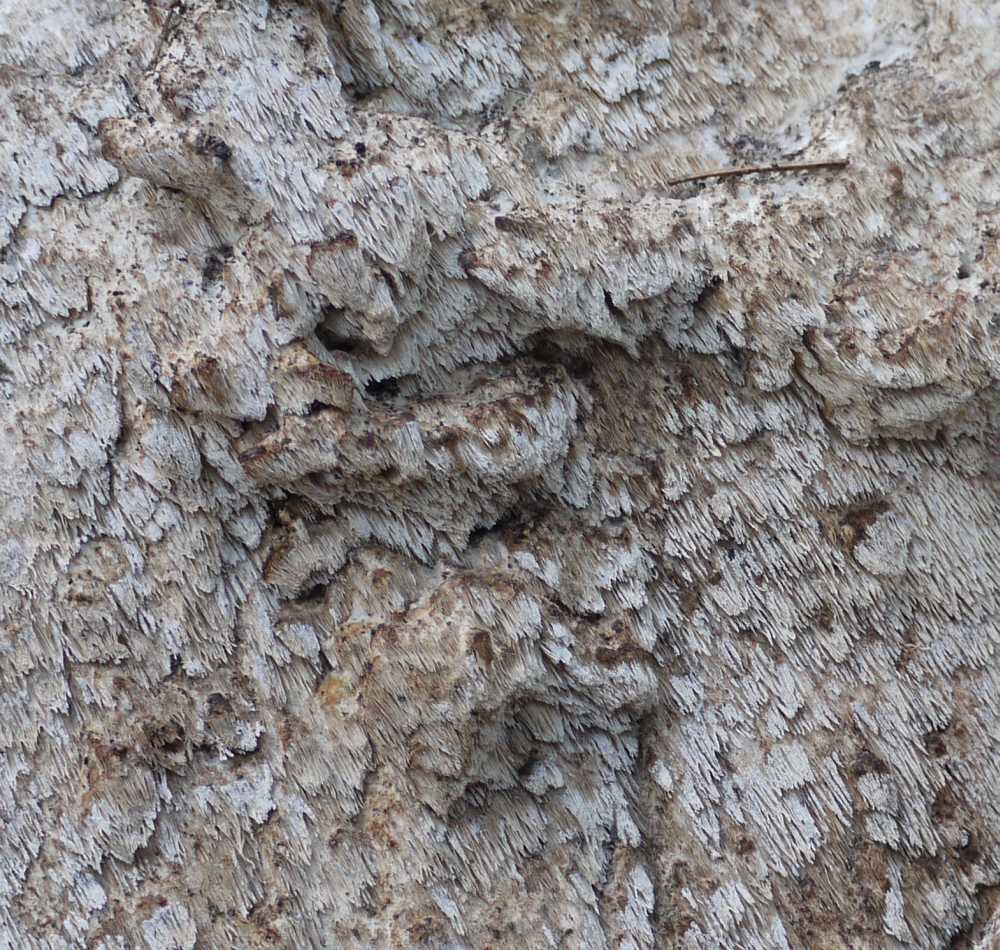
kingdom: Fungi
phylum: Basidiomycota
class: Agaricomycetes
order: Polyporales
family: Meruliaceae
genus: Physisporinus
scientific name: Physisporinus vitreus
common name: mastesvamp
